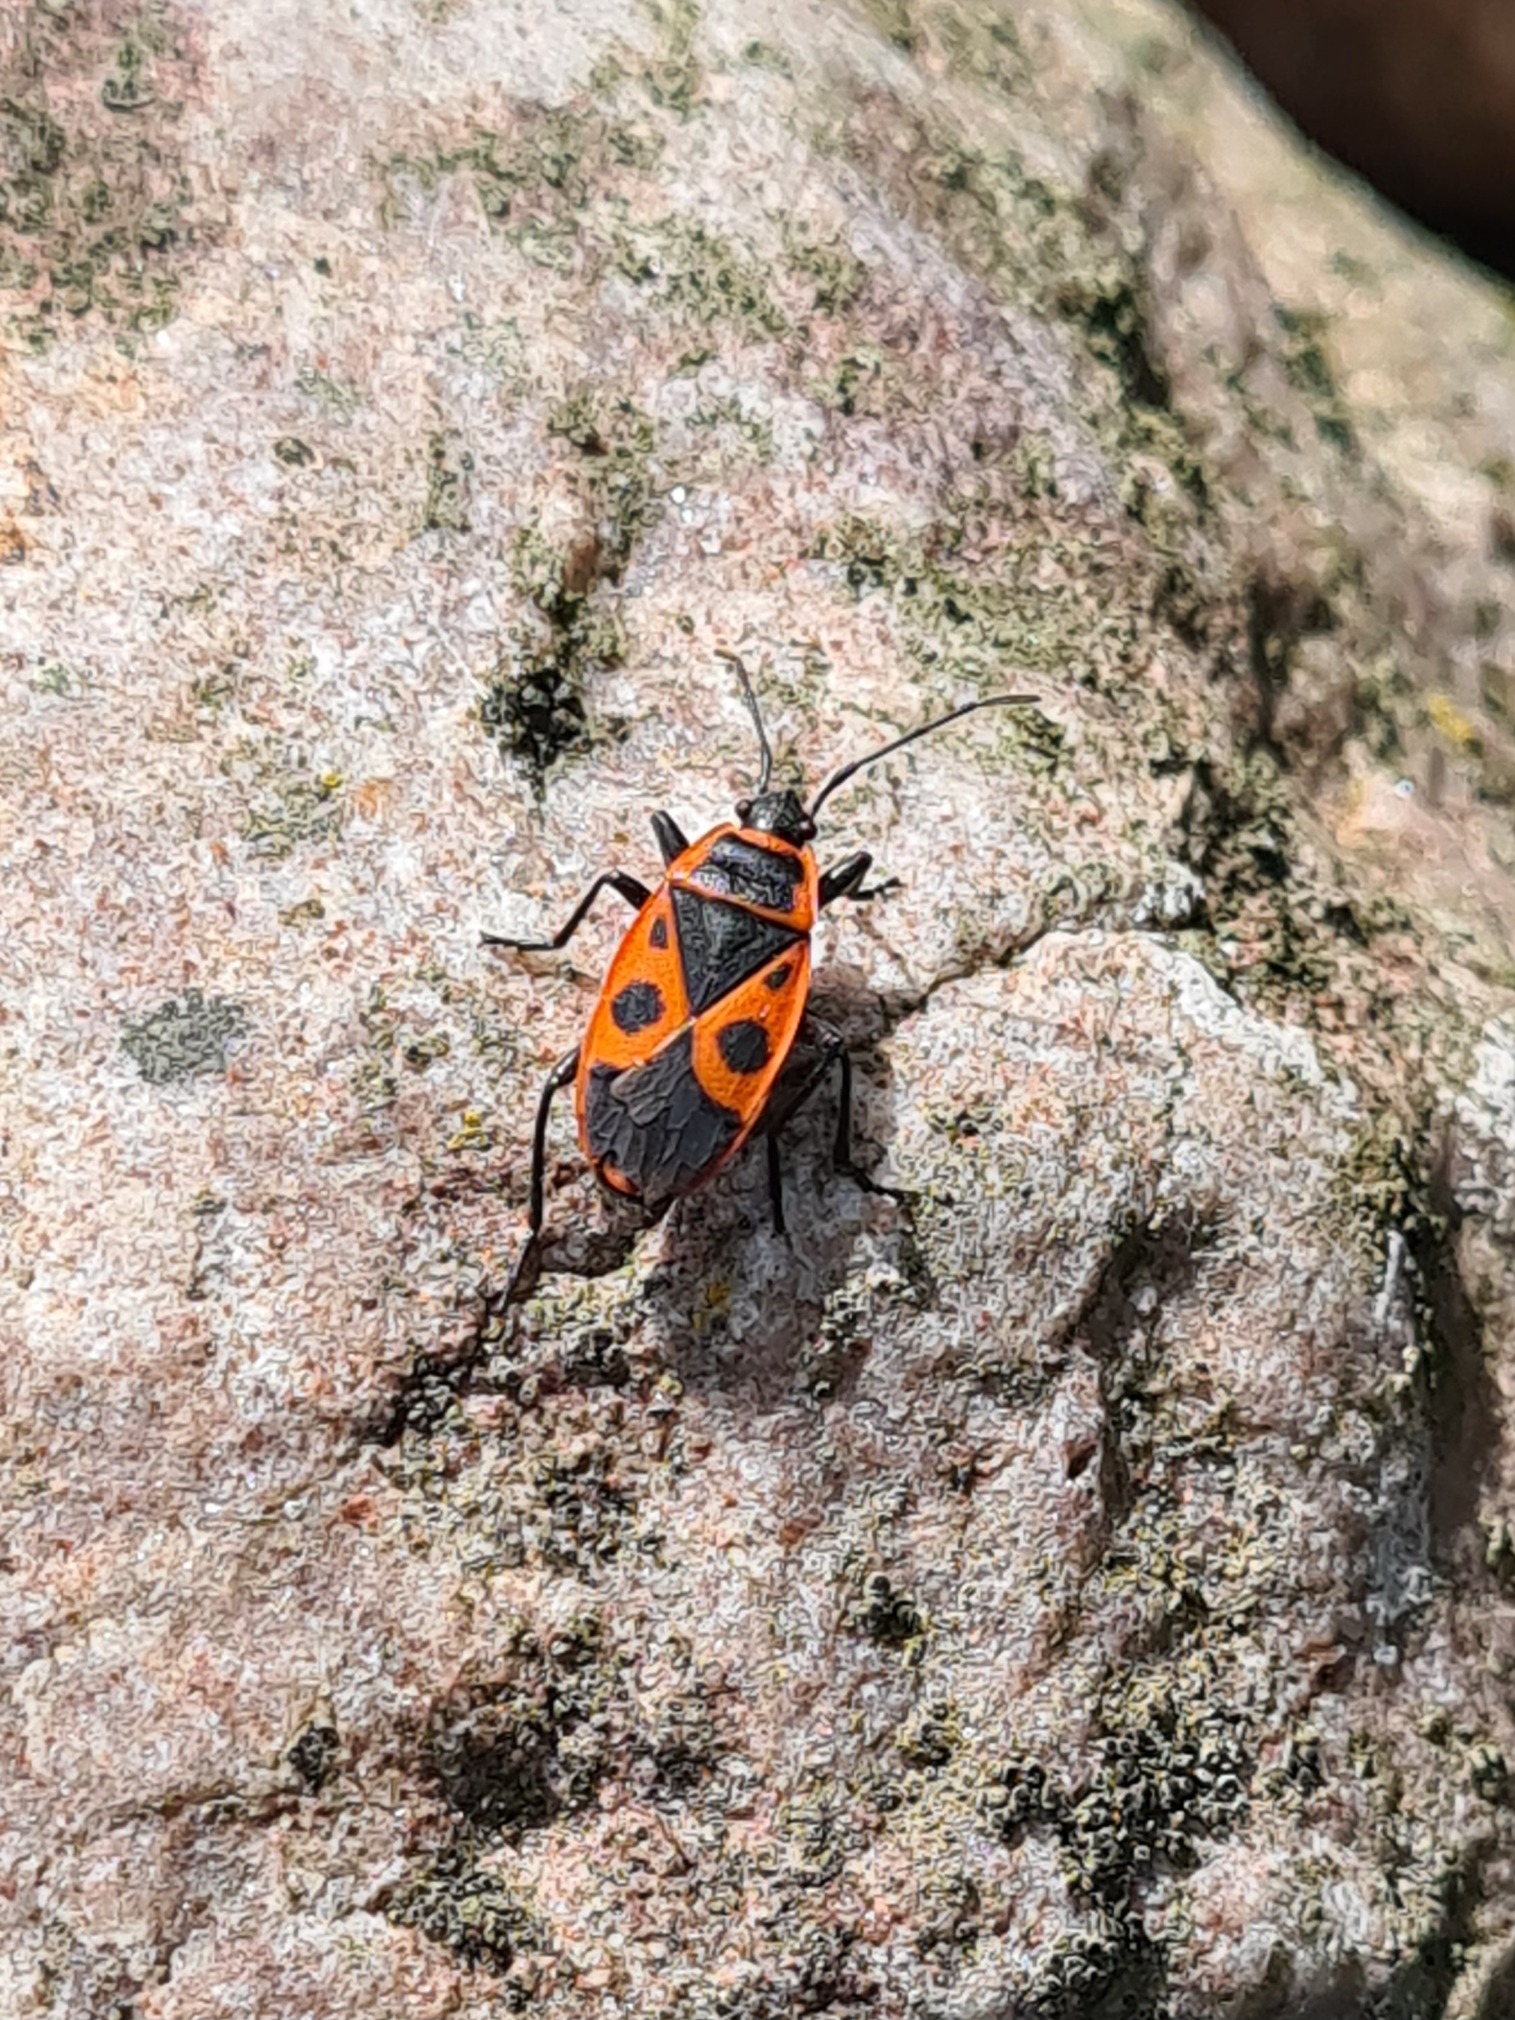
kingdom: Animalia
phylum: Arthropoda
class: Insecta
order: Hemiptera
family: Pyrrhocoridae
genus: Pyrrhocoris
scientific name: Pyrrhocoris apterus
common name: Ildtæge
